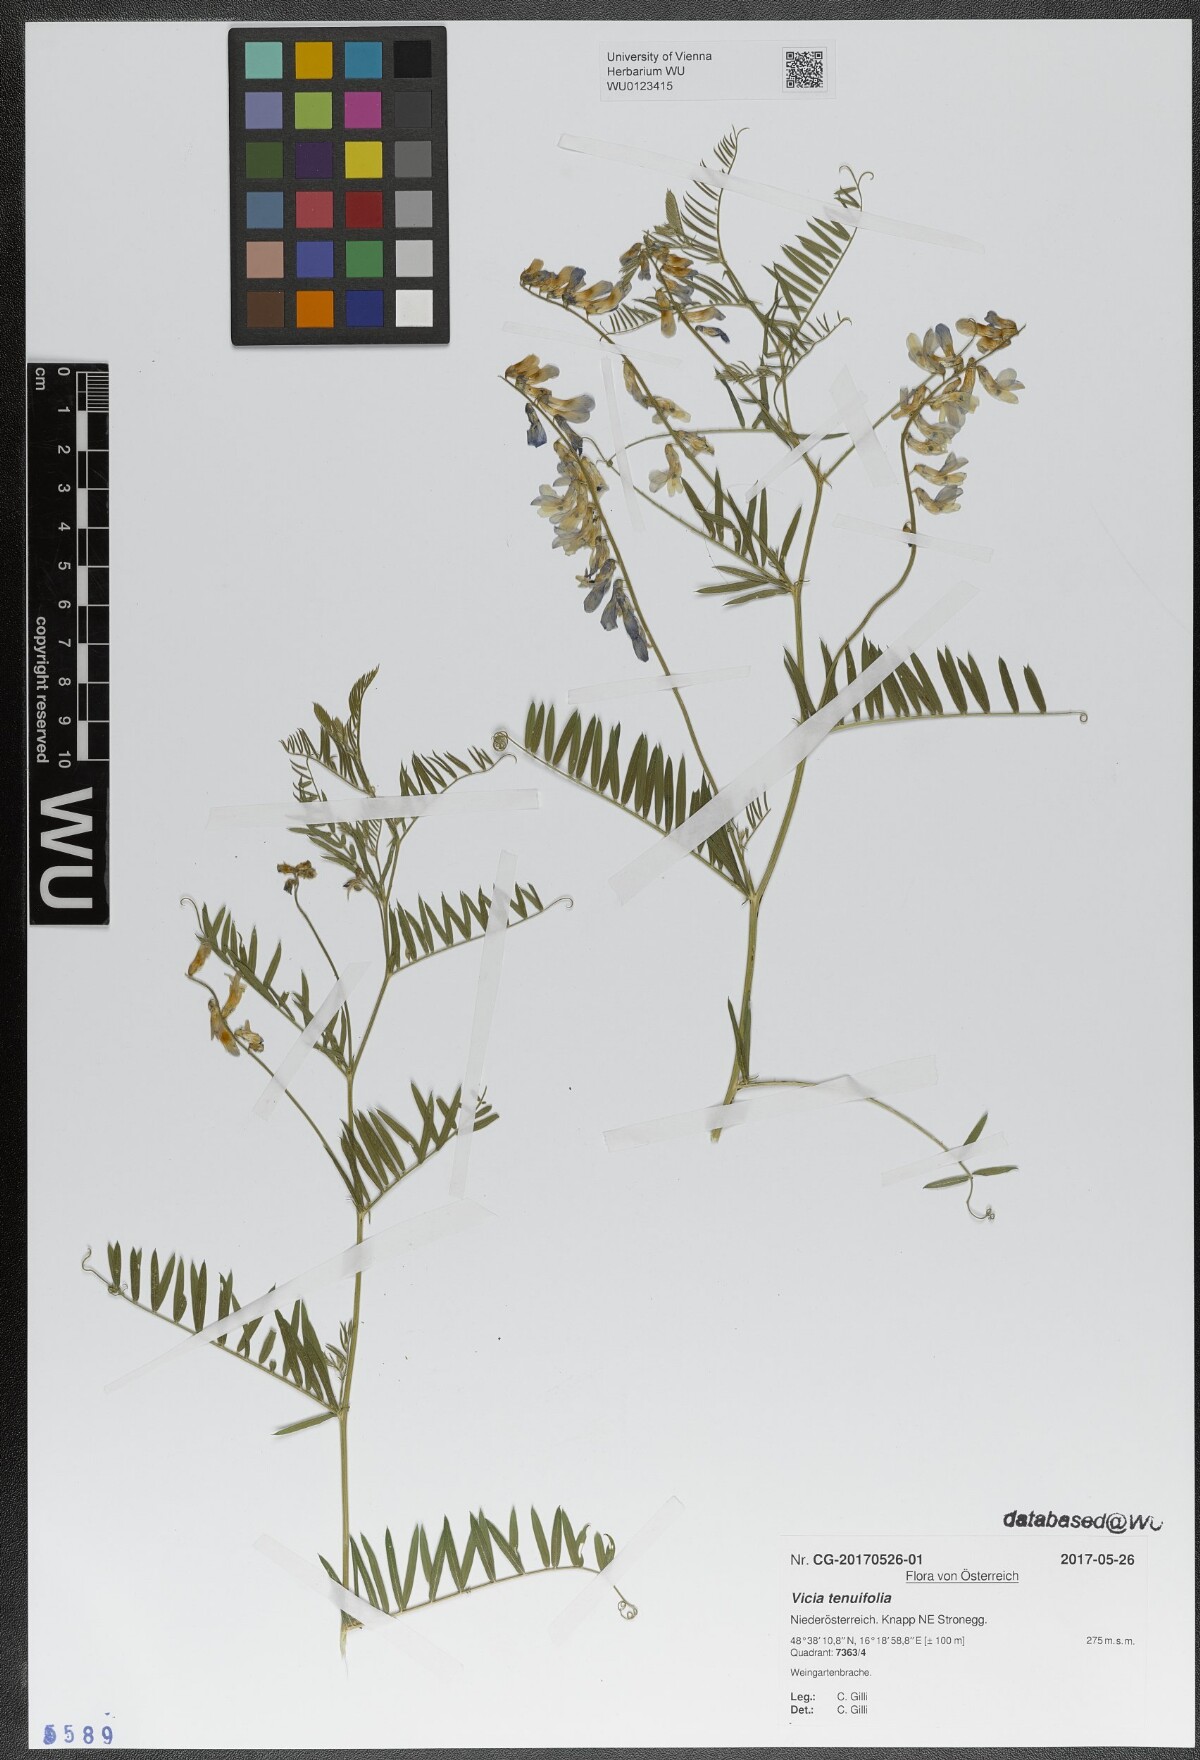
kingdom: Plantae
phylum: Tracheophyta
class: Magnoliopsida
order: Fabales
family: Fabaceae
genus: Vicia
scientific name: Vicia tenuifolia
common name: Fine-leaved vetch
